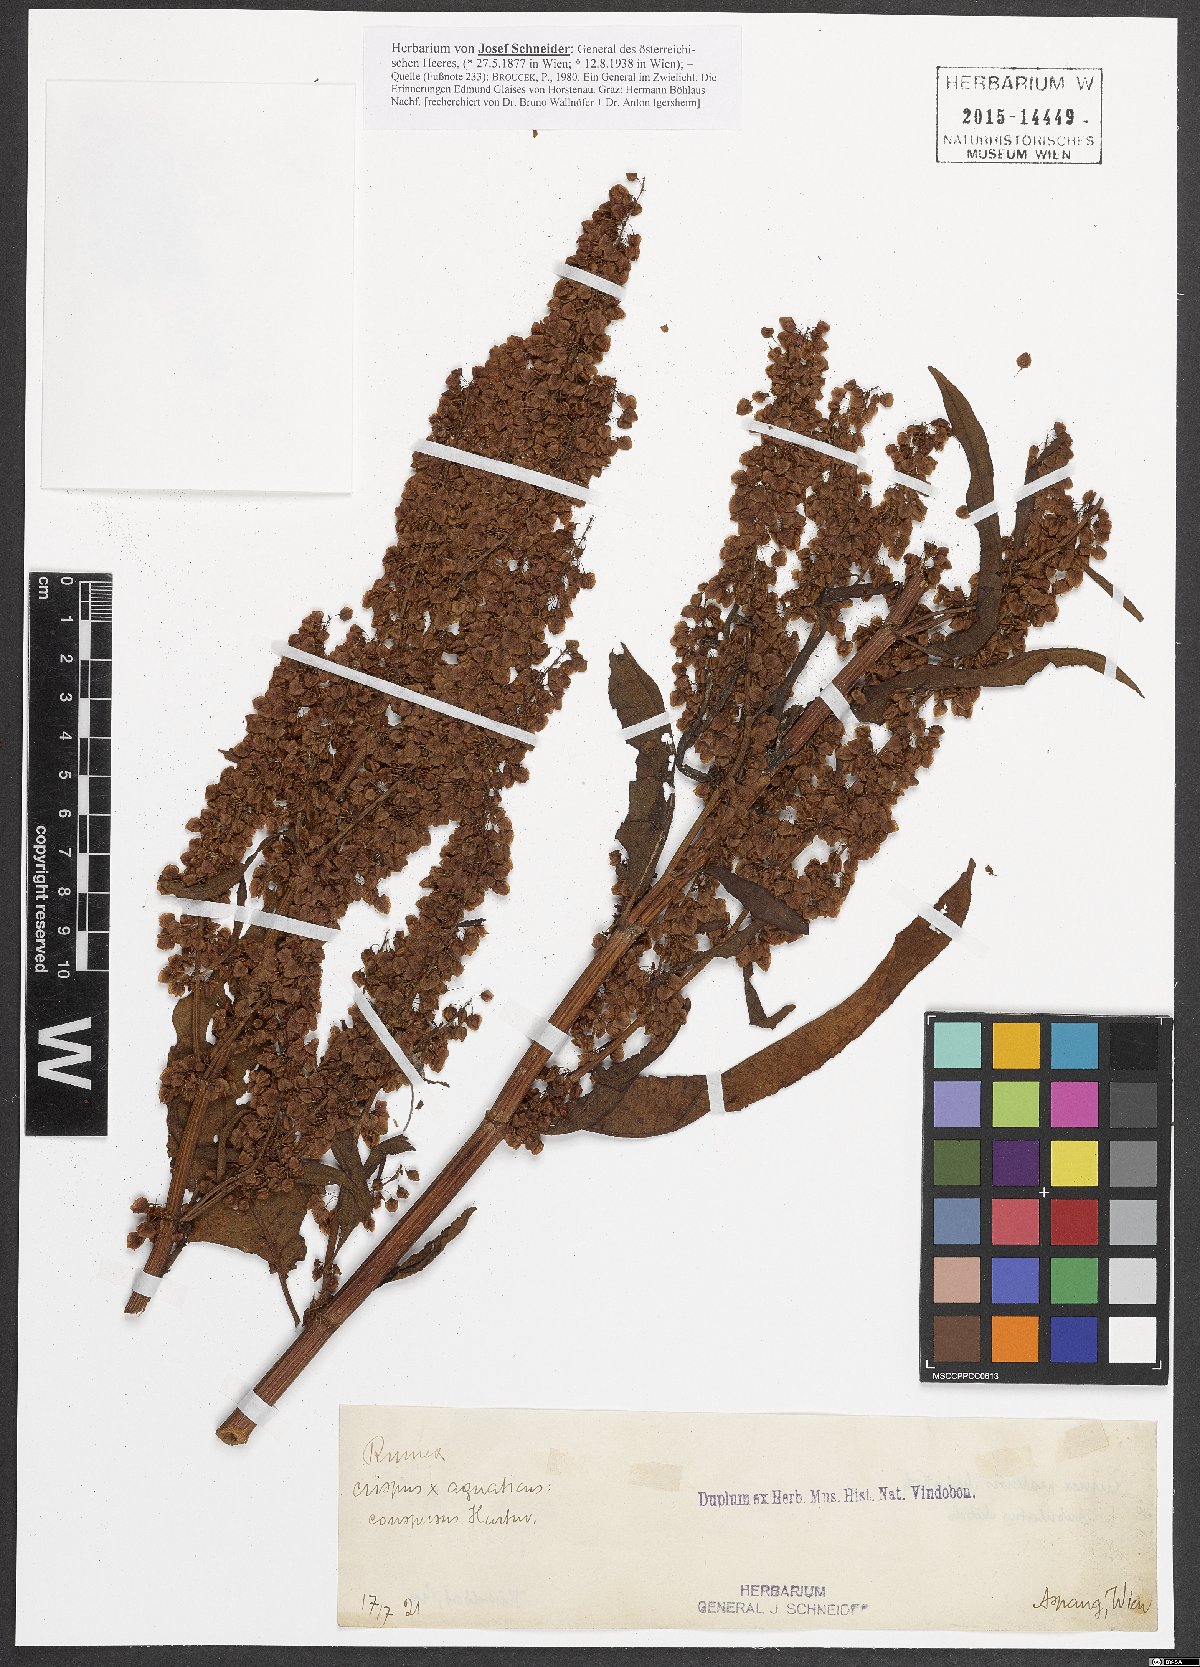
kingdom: Plantae
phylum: Tracheophyta
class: Magnoliopsida
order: Caryophyllales
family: Polygonaceae
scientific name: Polygonaceae
